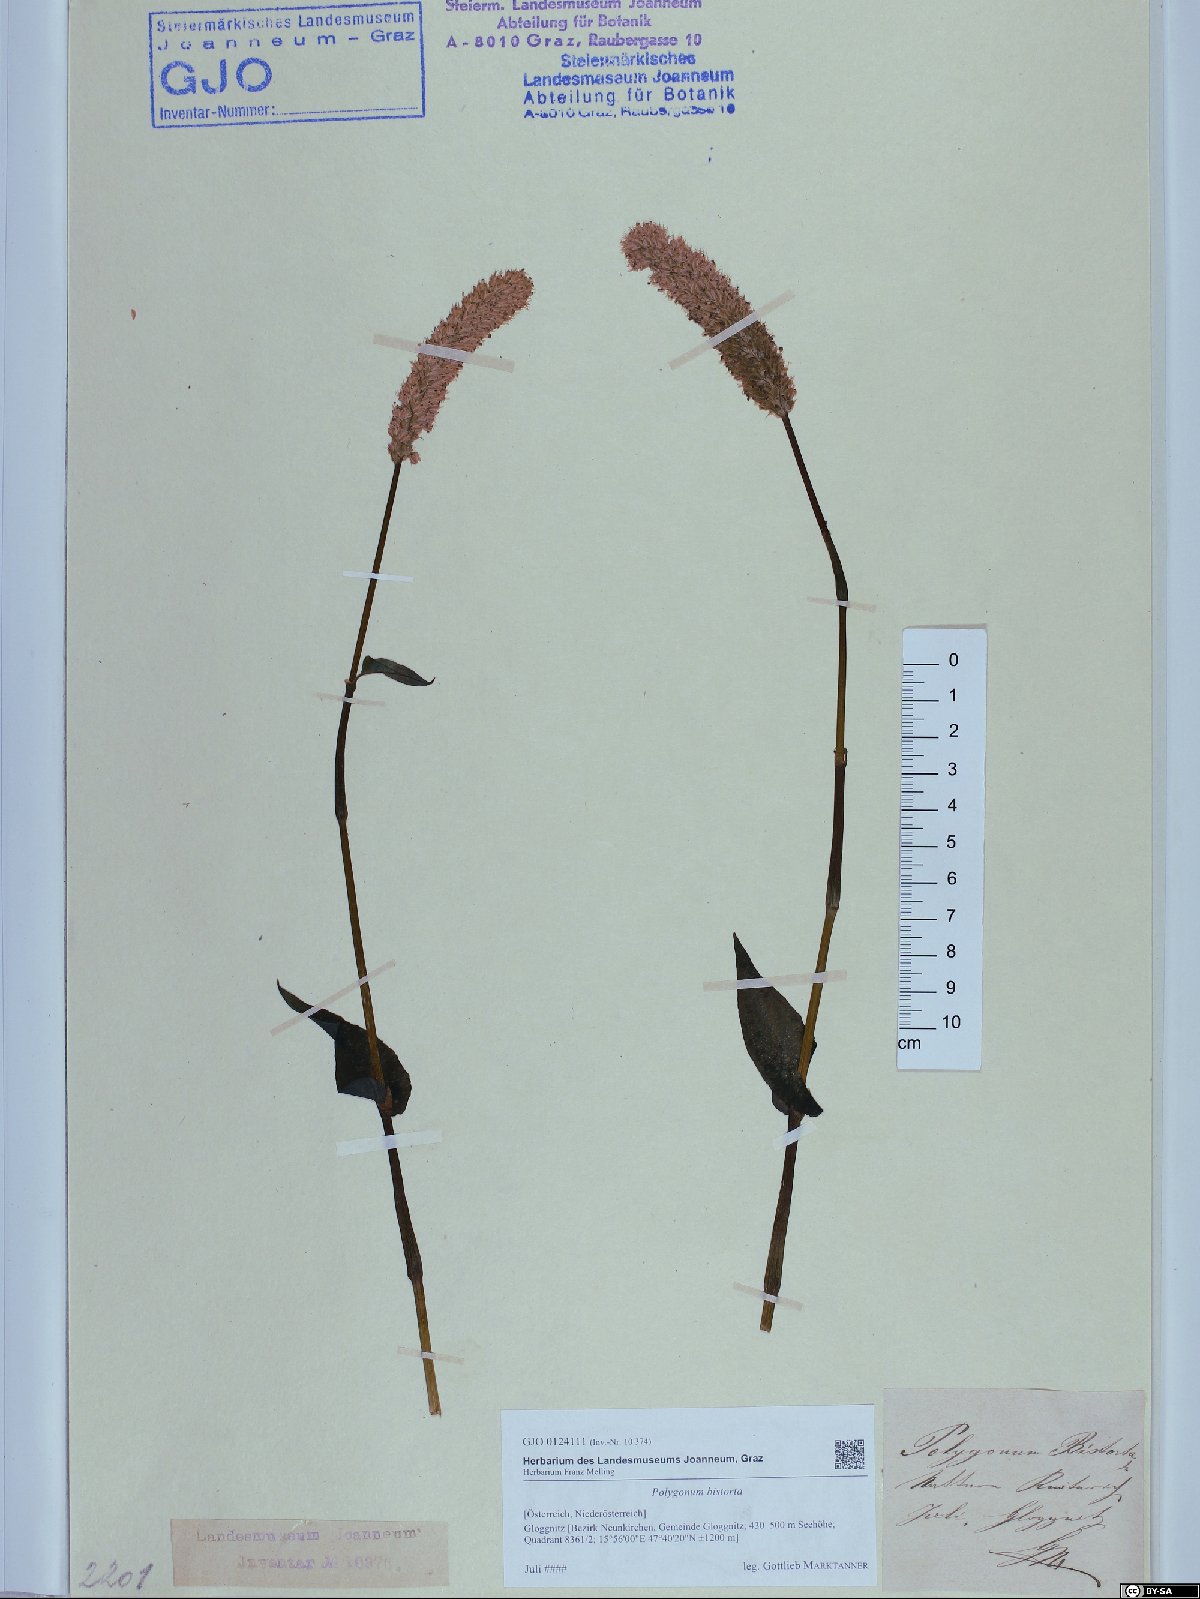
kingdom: Plantae
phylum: Tracheophyta
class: Magnoliopsida
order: Caryophyllales
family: Polygonaceae
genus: Bistorta
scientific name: Bistorta officinalis
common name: Common bistort
